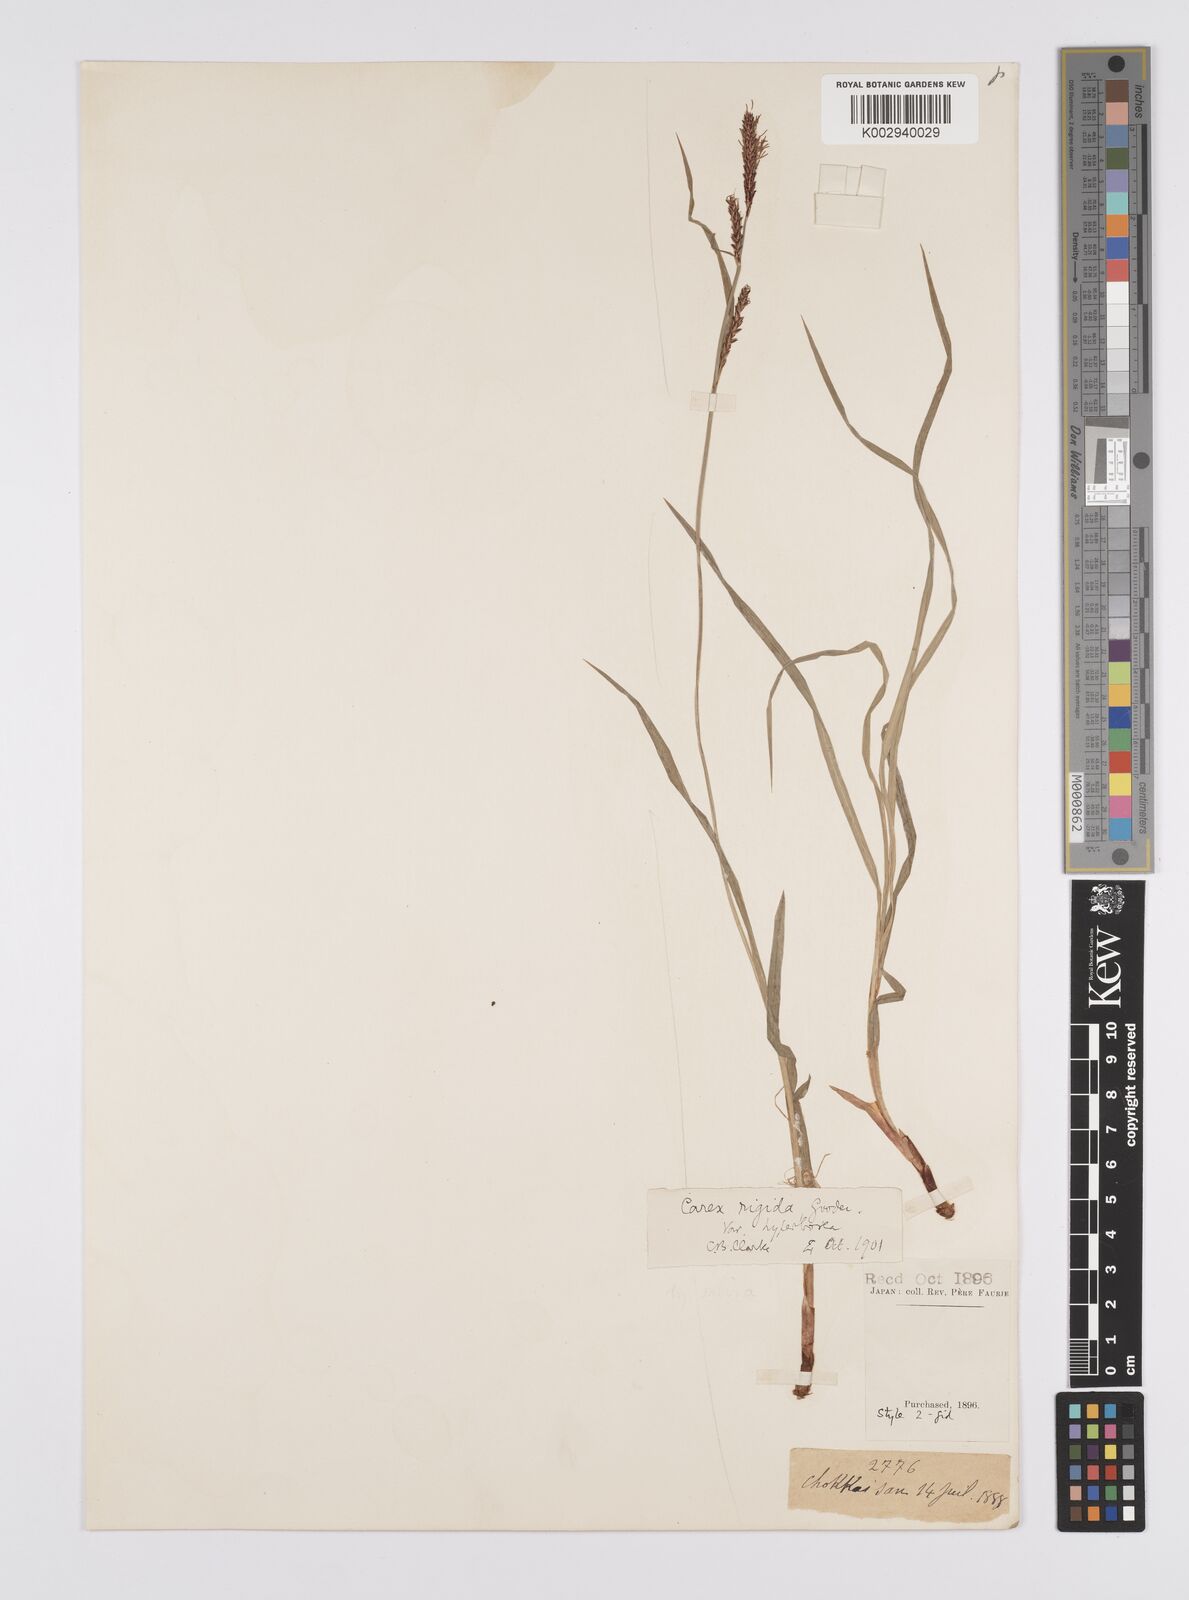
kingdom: Plantae
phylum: Tracheophyta
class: Liliopsida
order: Poales
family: Cyperaceae
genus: Carex
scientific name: Carex aquatilis
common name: Water sedge
